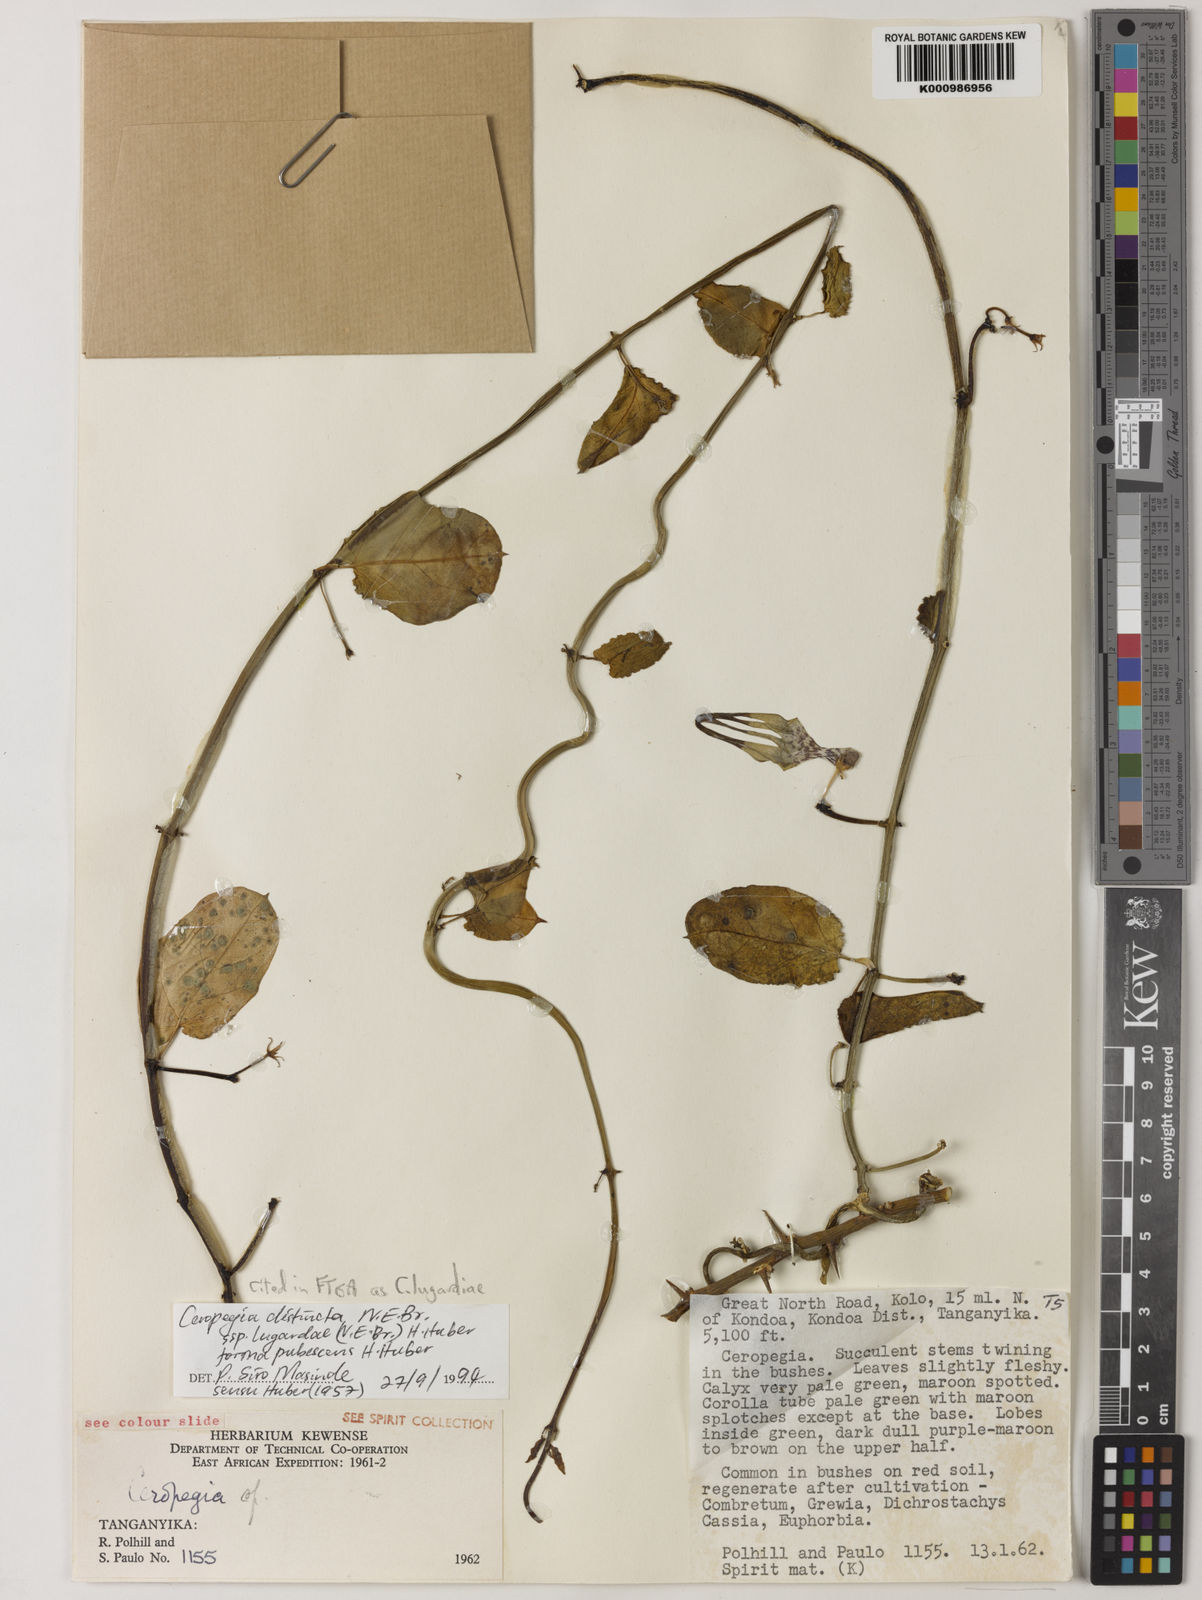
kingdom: Plantae
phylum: Tracheophyta
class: Magnoliopsida
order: Gentianales
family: Apocynaceae
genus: Ceropegia
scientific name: Ceropegia lugardiae
